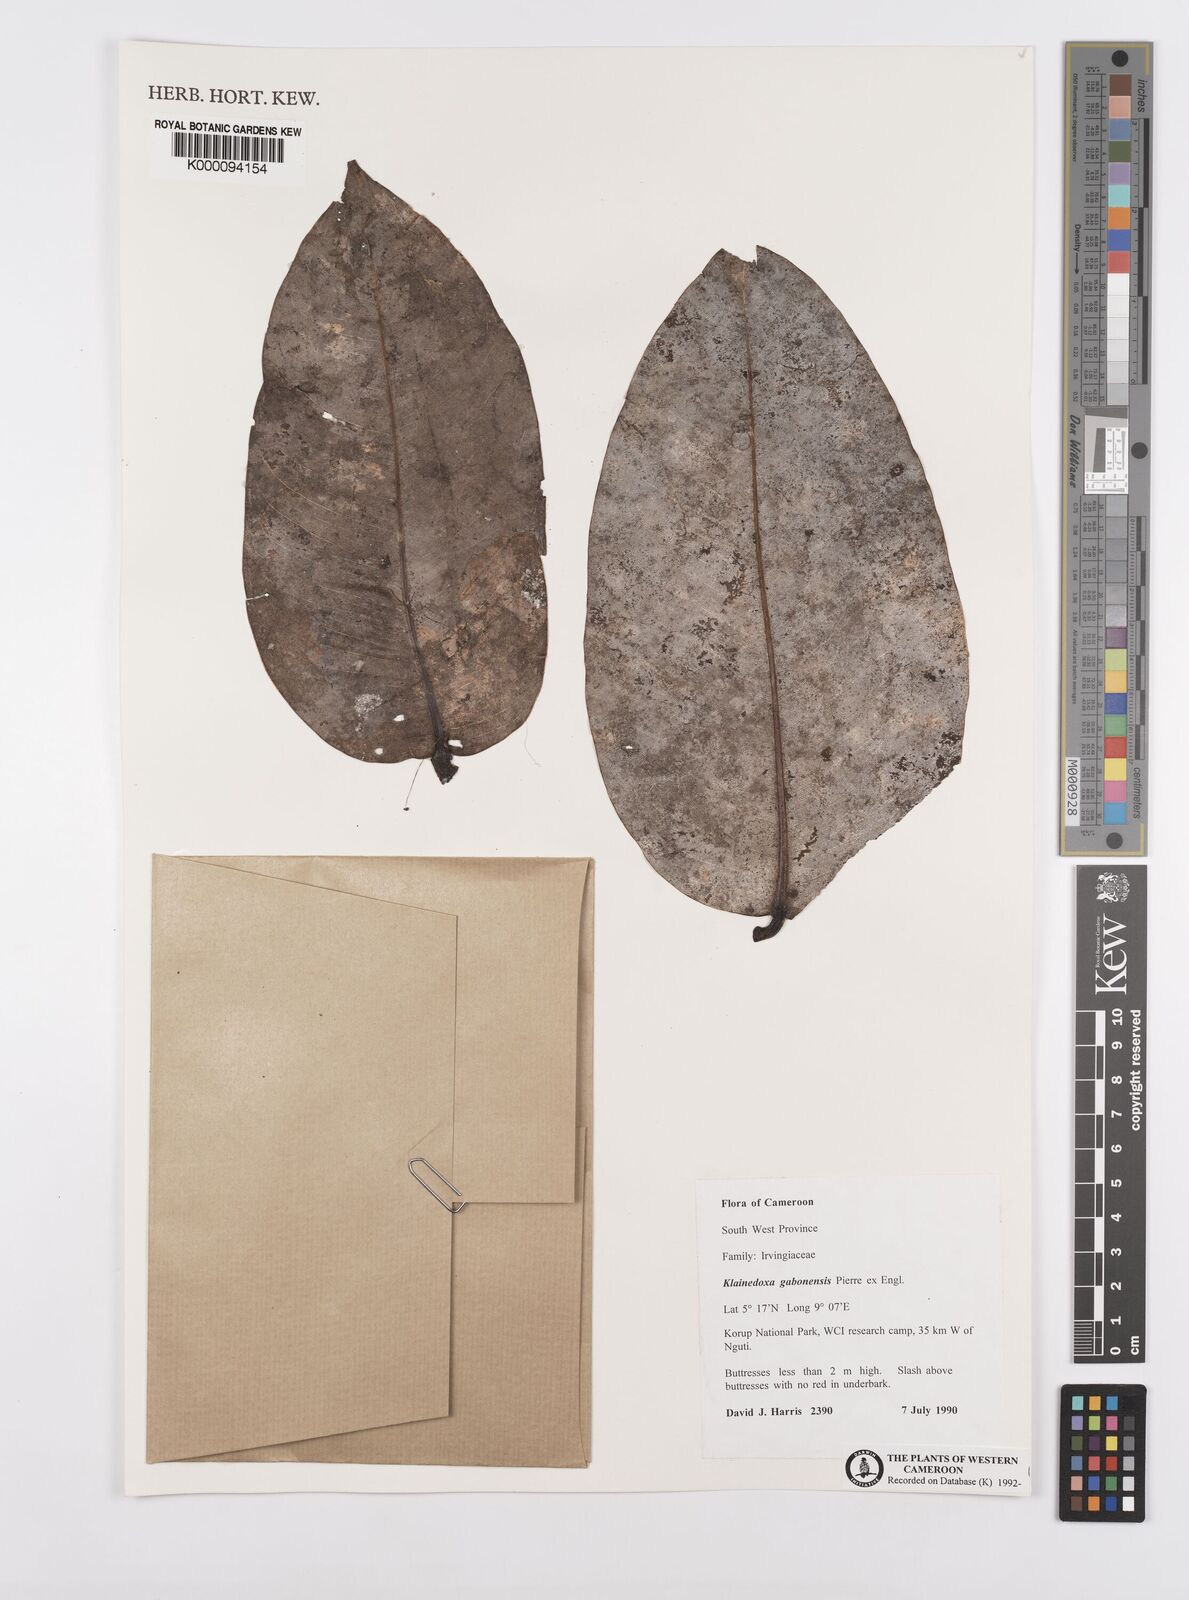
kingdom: Plantae
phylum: Tracheophyta
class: Magnoliopsida
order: Malpighiales
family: Irvingiaceae
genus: Klainedoxa
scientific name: Klainedoxa gabonensis
